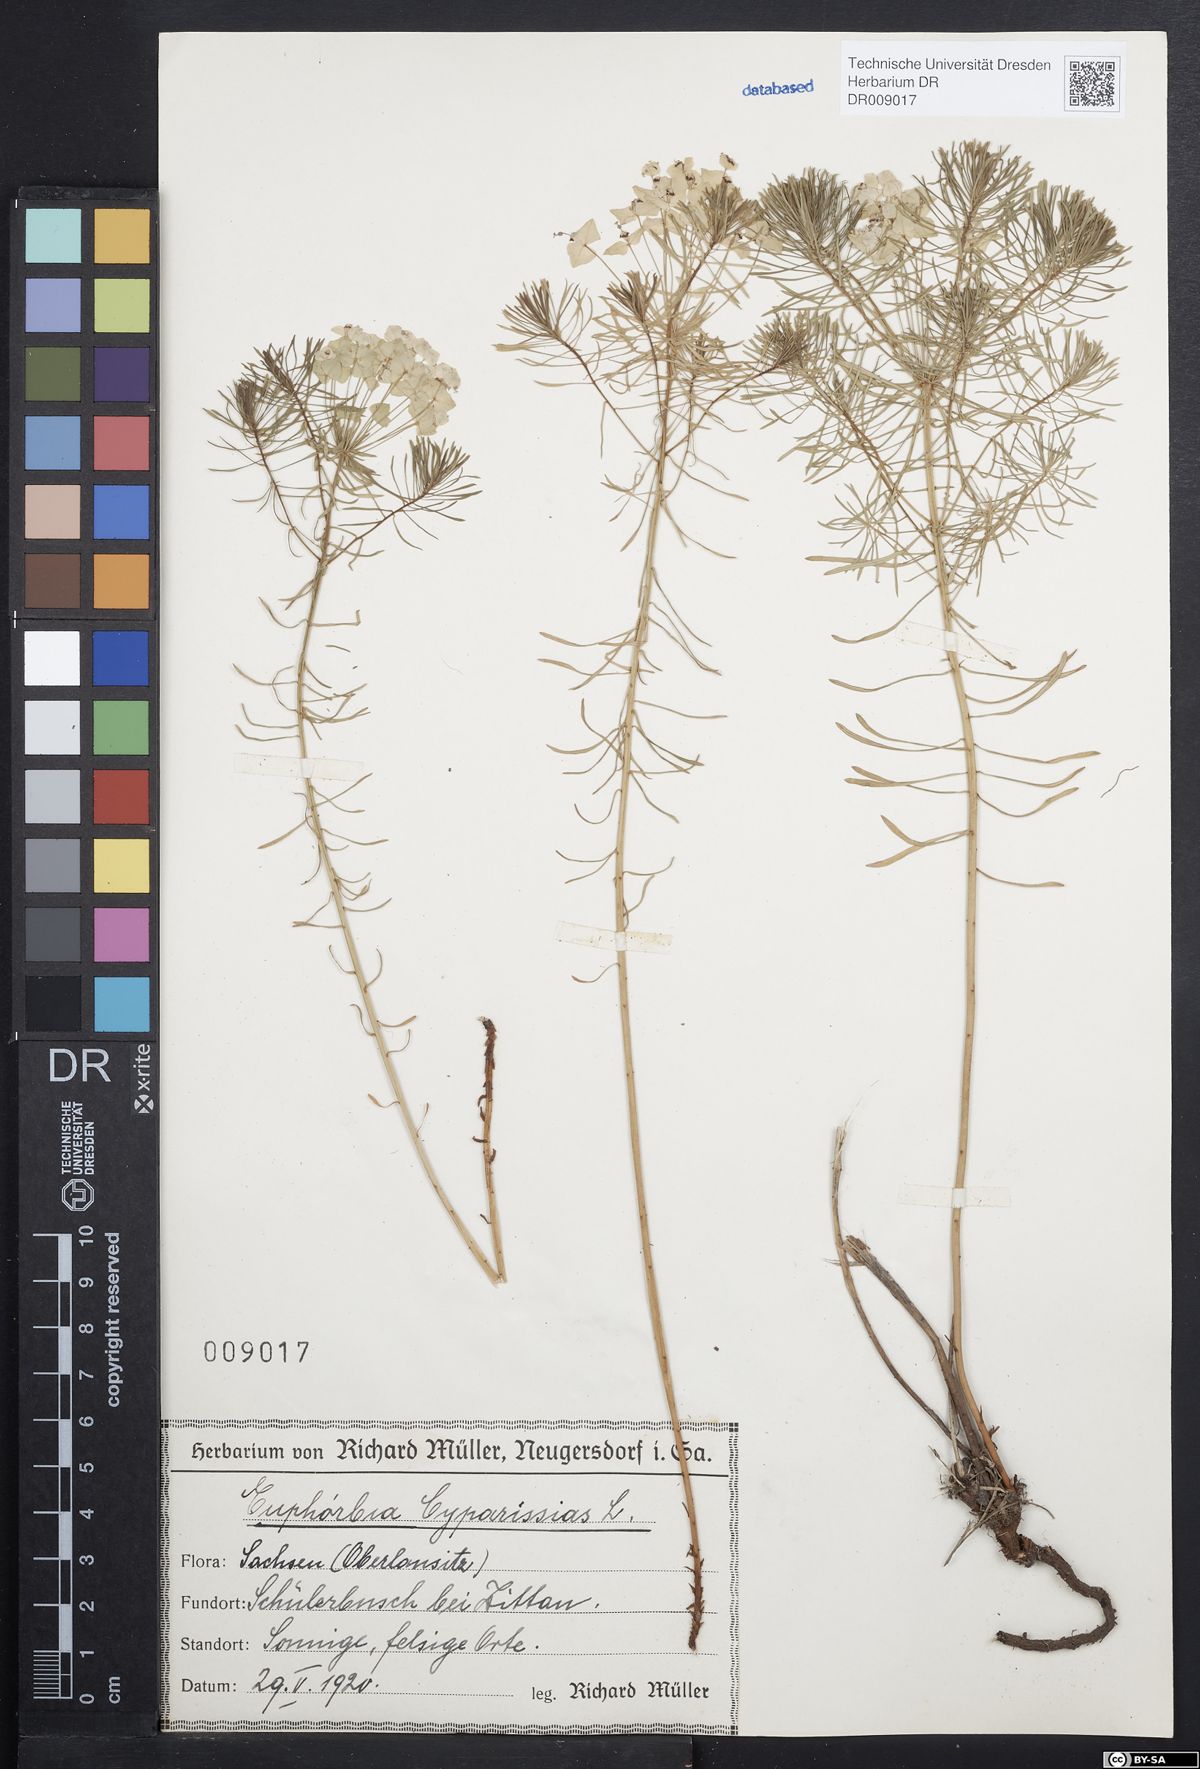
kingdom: Plantae
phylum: Tracheophyta
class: Magnoliopsida
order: Malpighiales
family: Euphorbiaceae
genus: Euphorbia
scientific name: Euphorbia cyparissias
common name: Cypress spurge
